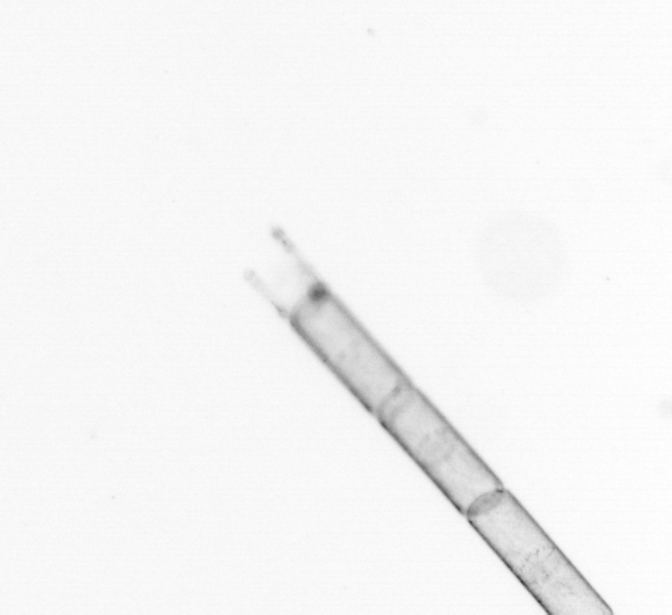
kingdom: Chromista
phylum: Ochrophyta
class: Bacillariophyceae
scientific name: Bacillariophyceae
